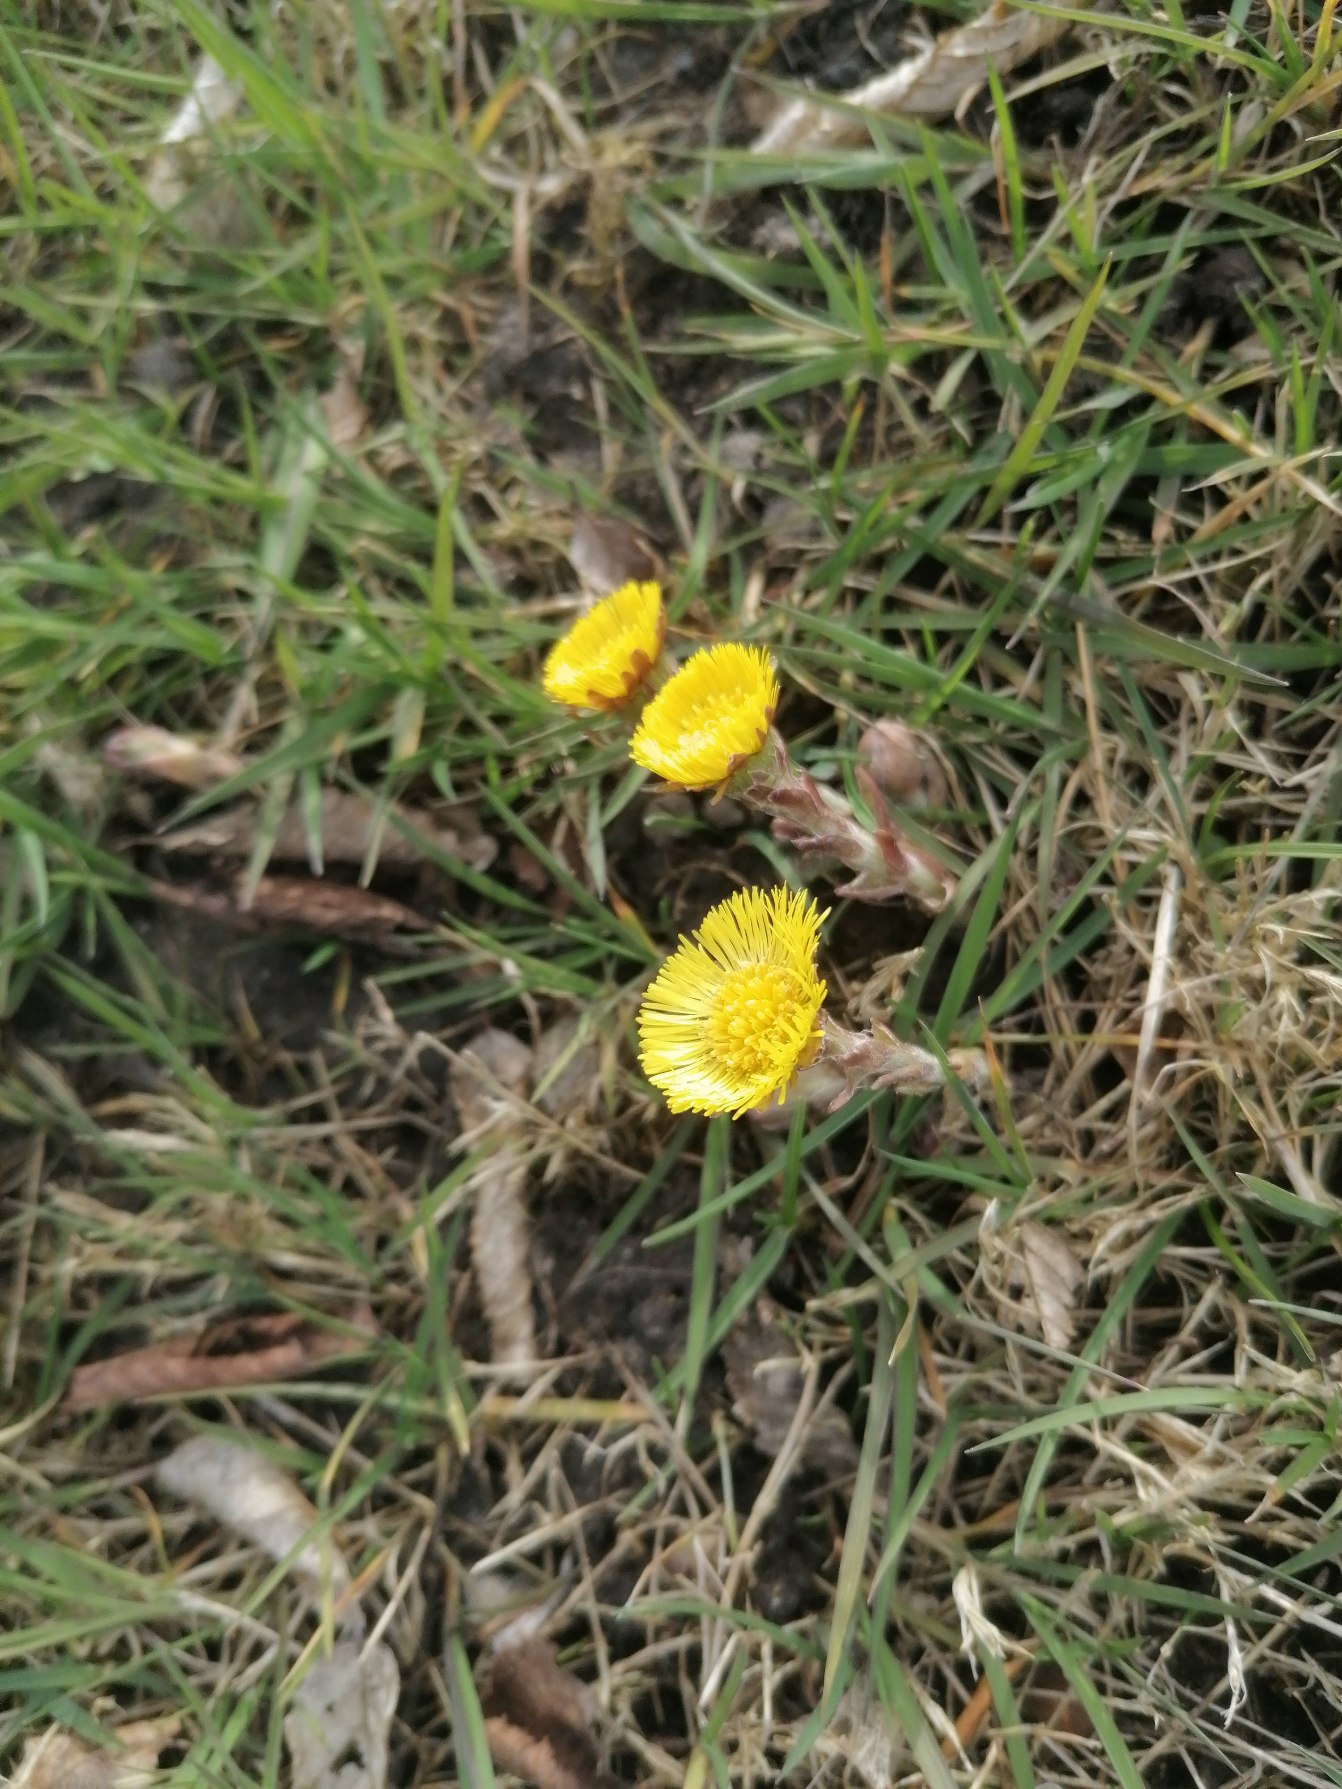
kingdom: Plantae
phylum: Tracheophyta
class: Magnoliopsida
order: Asterales
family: Asteraceae
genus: Tussilago
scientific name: Tussilago farfara
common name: Følfod
